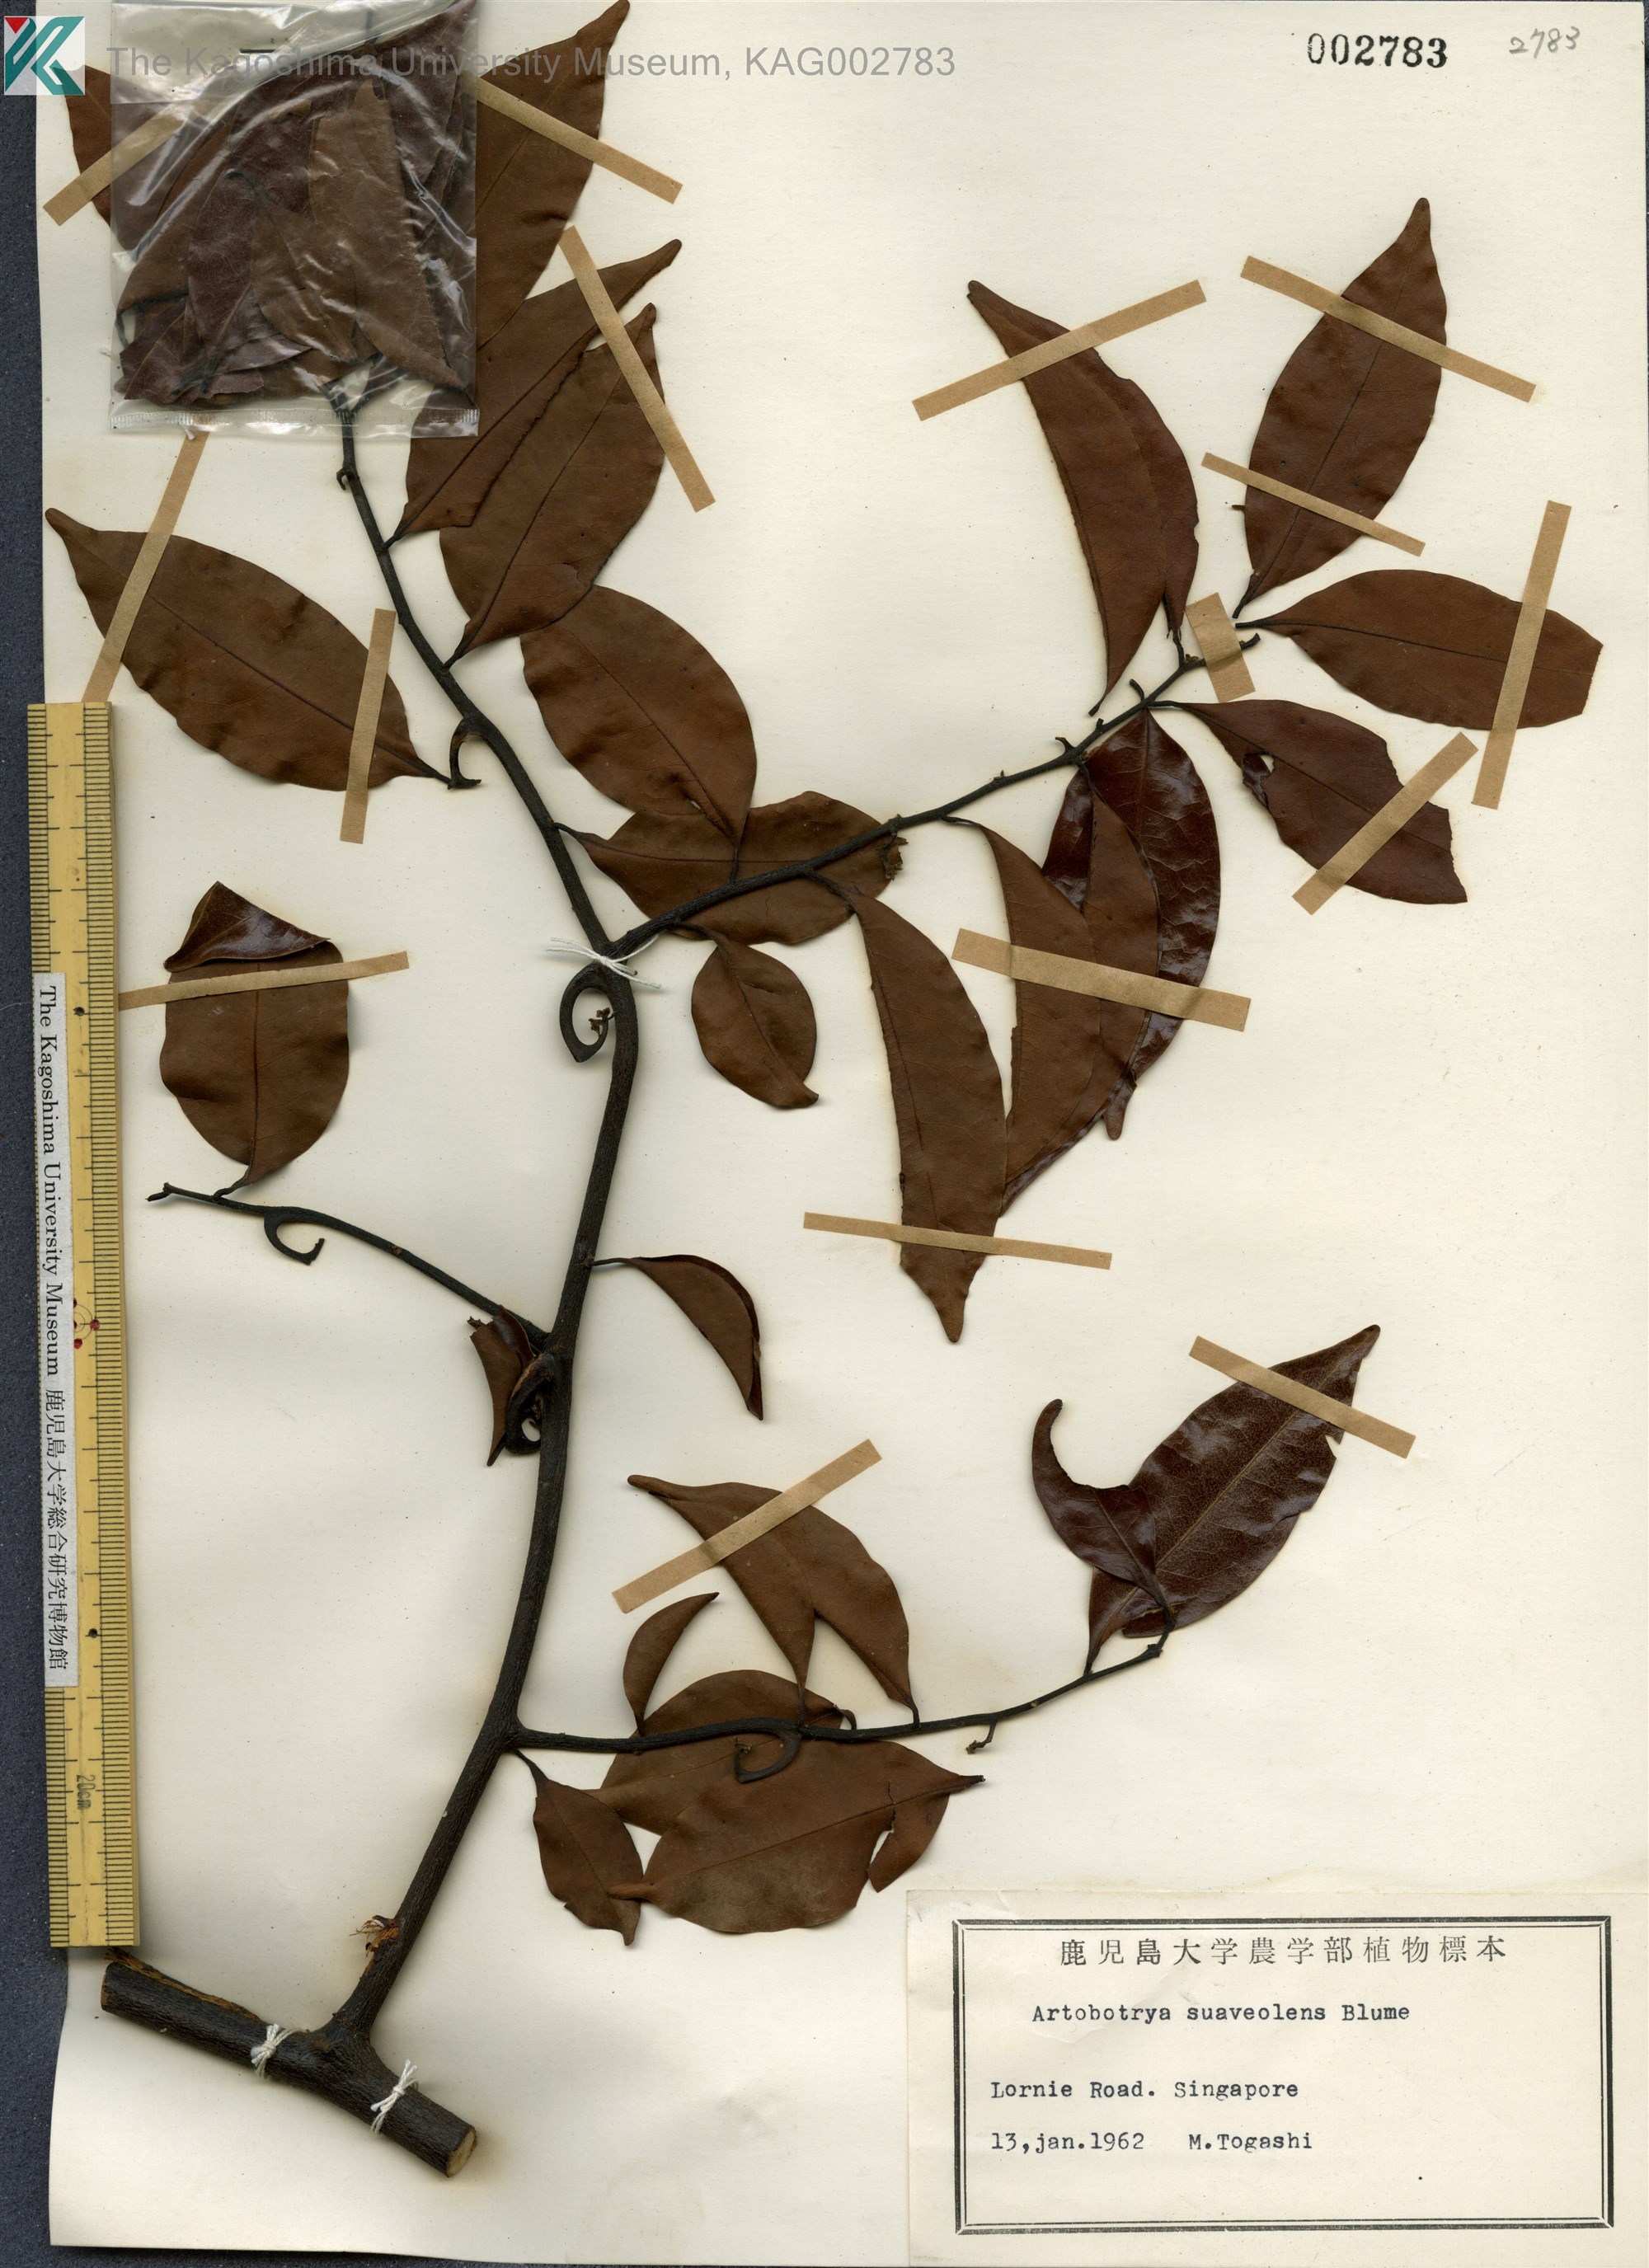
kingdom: Plantae
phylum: Tracheophyta
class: Magnoliopsida
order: Magnoliales
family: Annonaceae
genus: Artabotrys
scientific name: Artabotrys suaveolens
